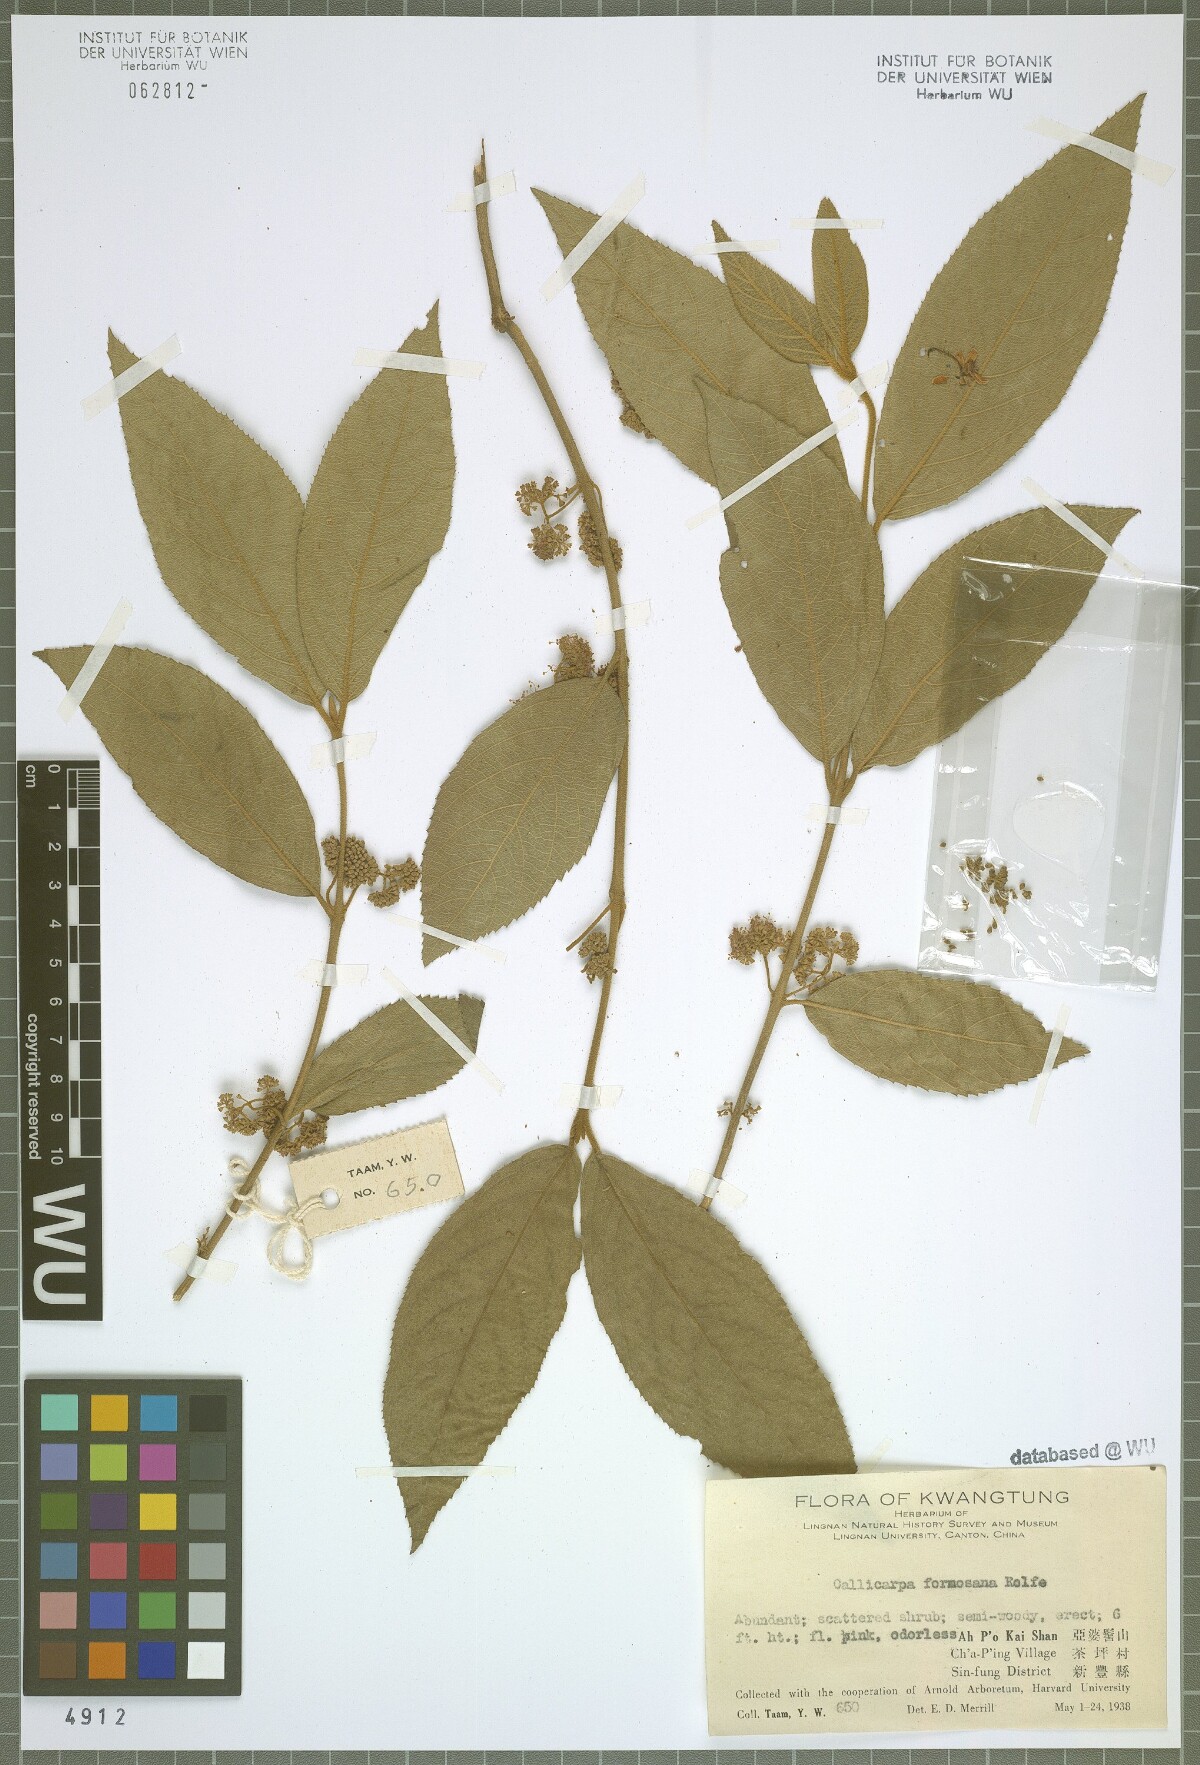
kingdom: Plantae
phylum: Tracheophyta
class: Magnoliopsida
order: Lamiales
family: Lamiaceae
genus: Callicarpa
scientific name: Callicarpa pedunculata
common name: Velvetleaf
